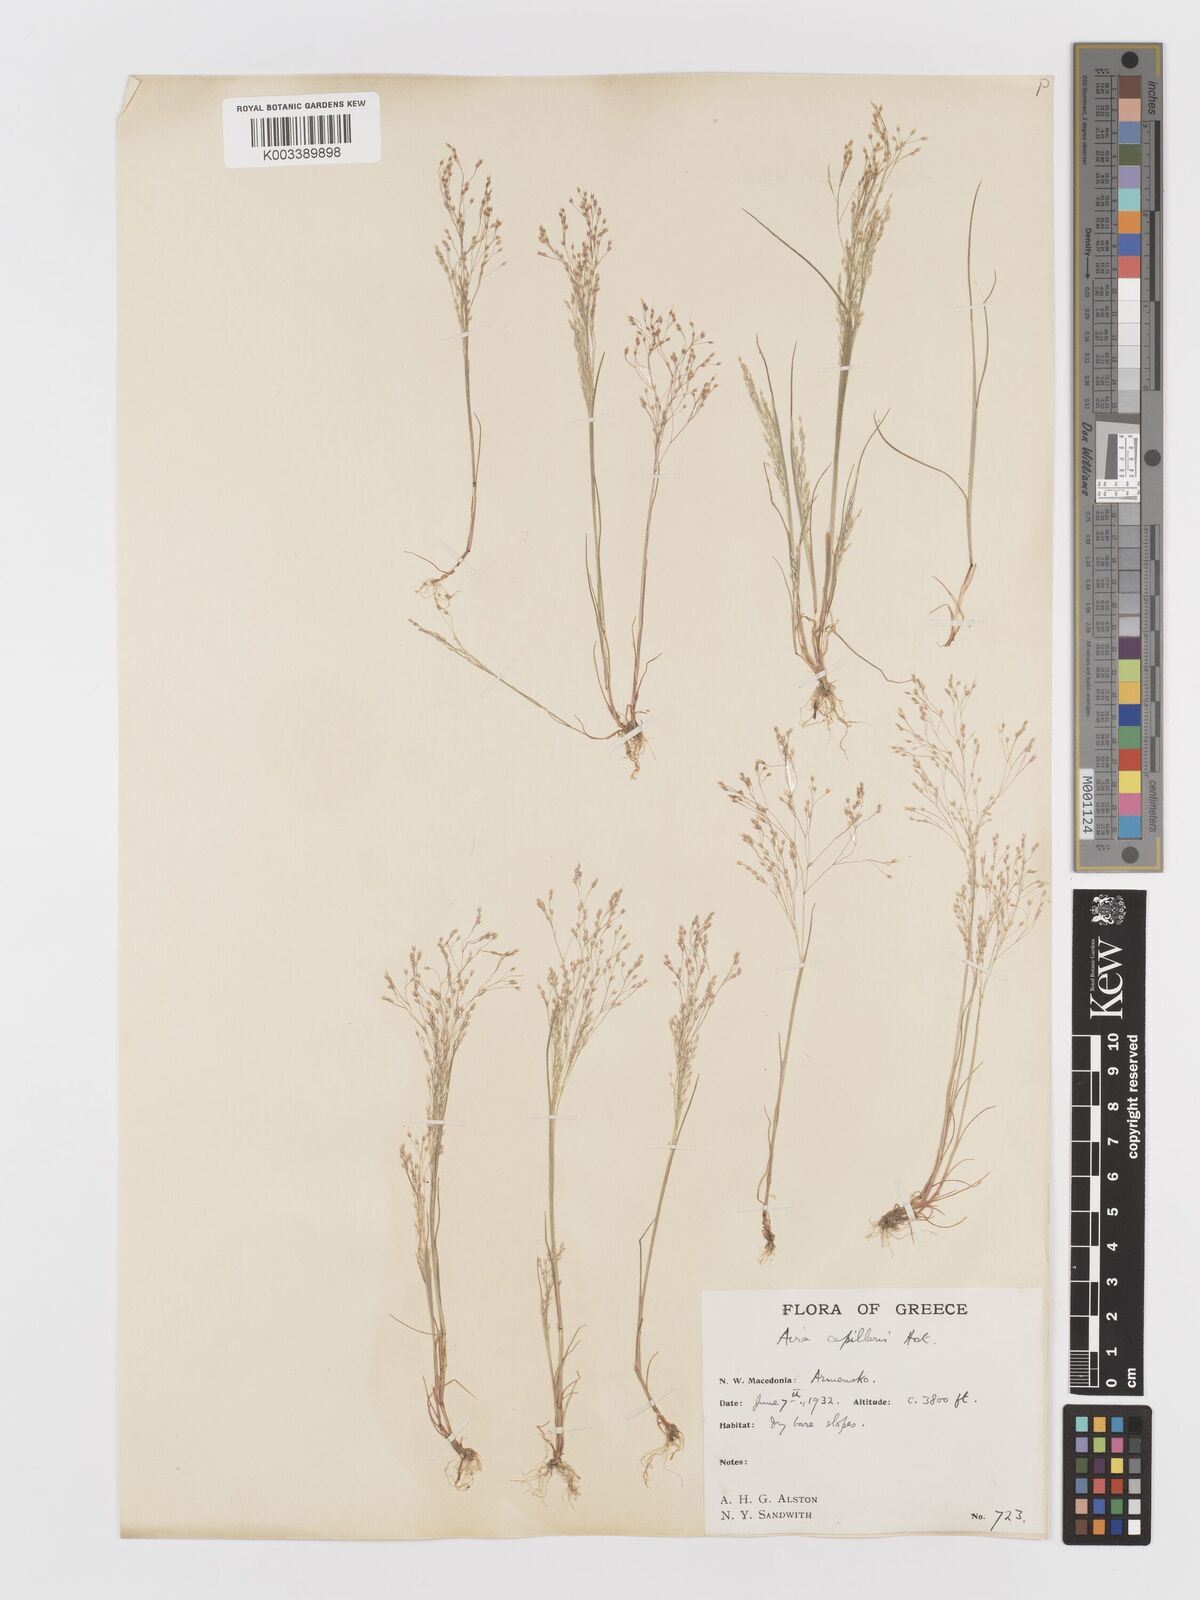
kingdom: Plantae
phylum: Tracheophyta
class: Liliopsida
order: Poales
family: Poaceae
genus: Aira
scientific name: Aira elegans
